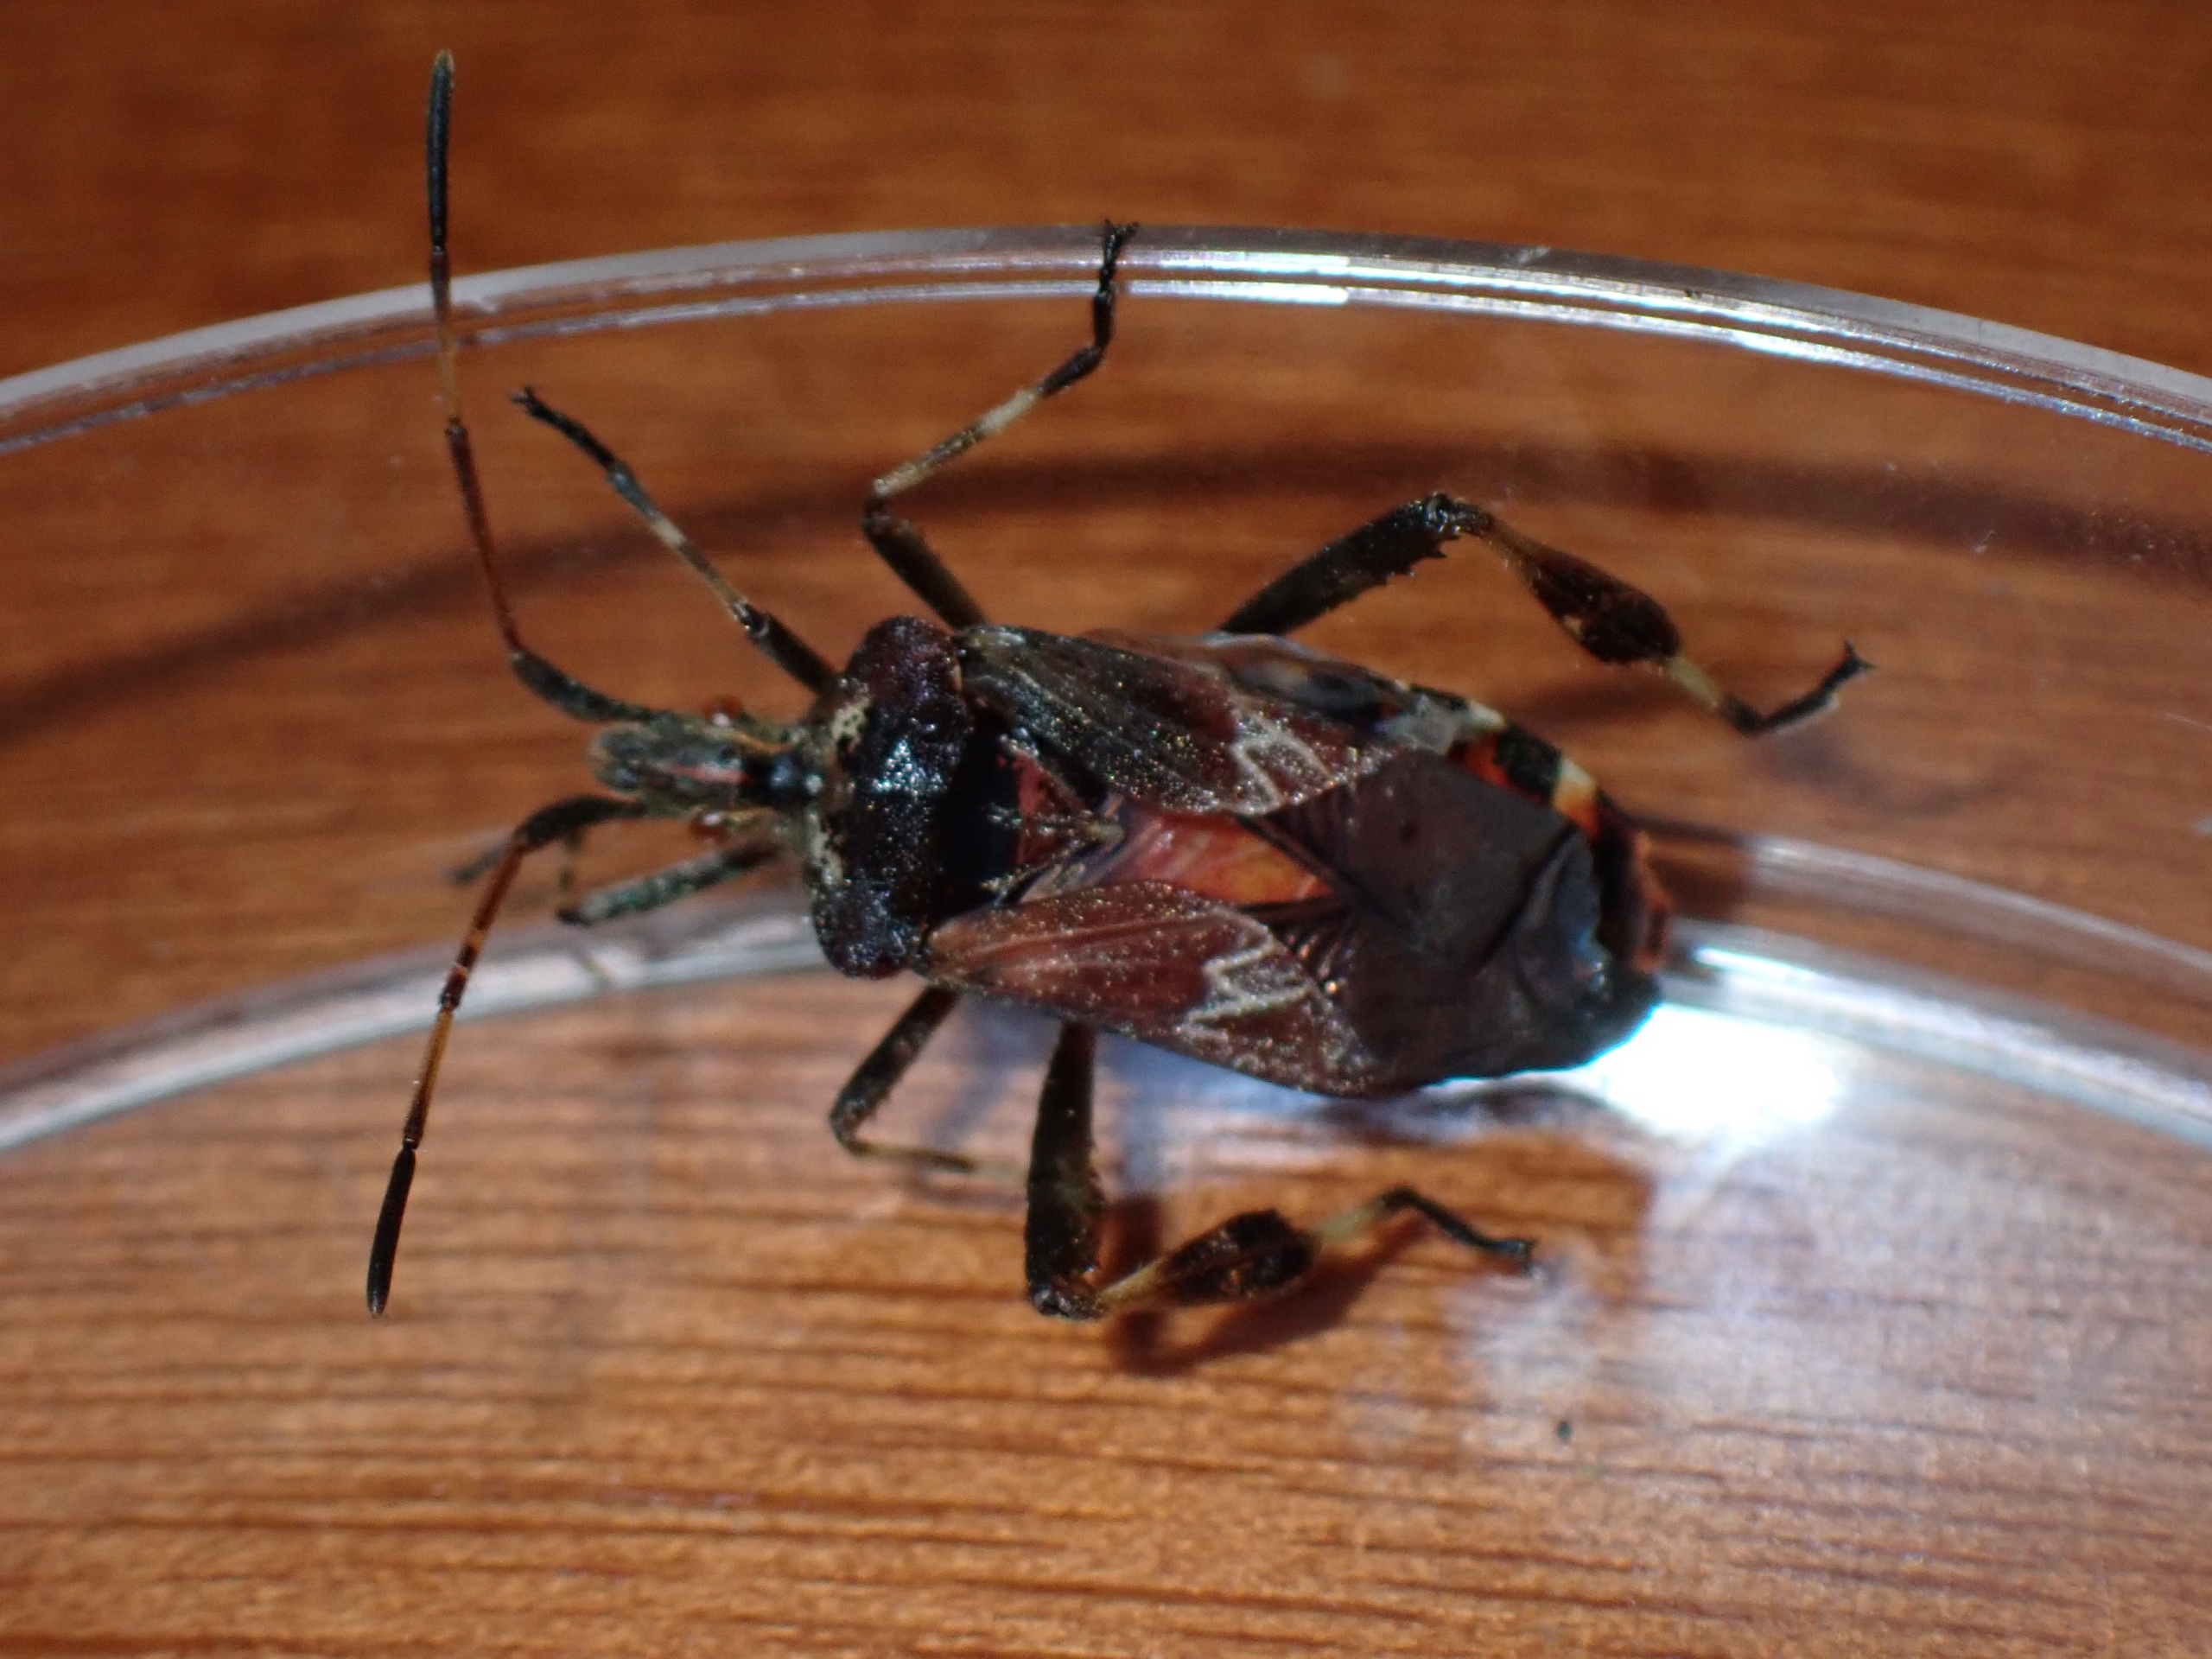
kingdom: Animalia
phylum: Arthropoda
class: Insecta
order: Hemiptera
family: Coreidae
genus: Leptoglossus
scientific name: Leptoglossus occidentalis
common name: Amerikansk fyrretæge
